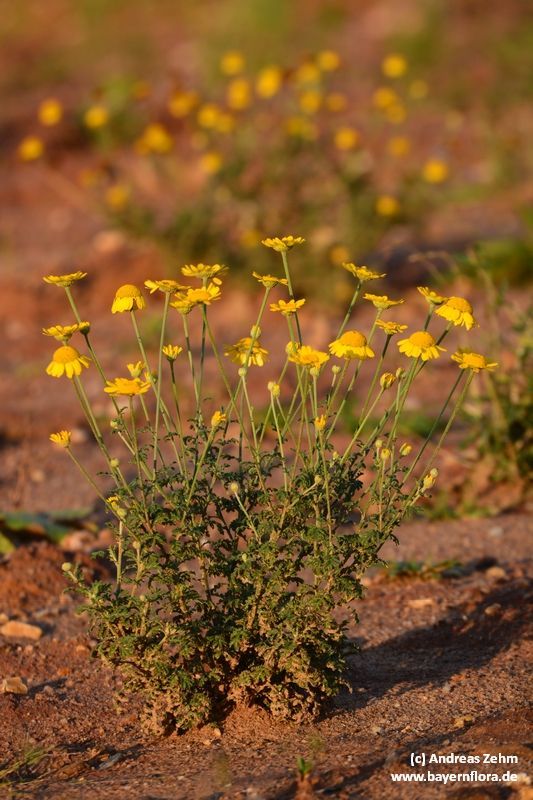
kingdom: Plantae
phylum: Tracheophyta
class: Magnoliopsida
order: Asterales
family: Asteraceae
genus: Cota
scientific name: Cota tinctoria
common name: Golden chamomile
